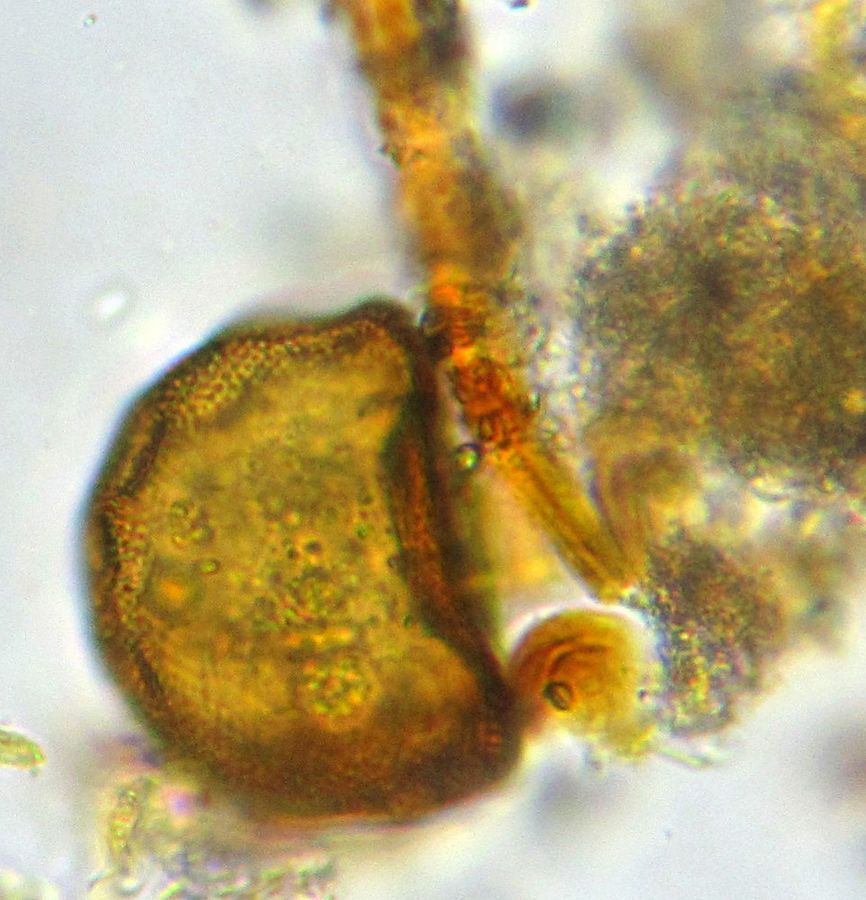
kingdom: Protozoa
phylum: Amoebozoa
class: Lobosa
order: Arcellinida
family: Arcellidae
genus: Arcella
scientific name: Arcella gibbosa
